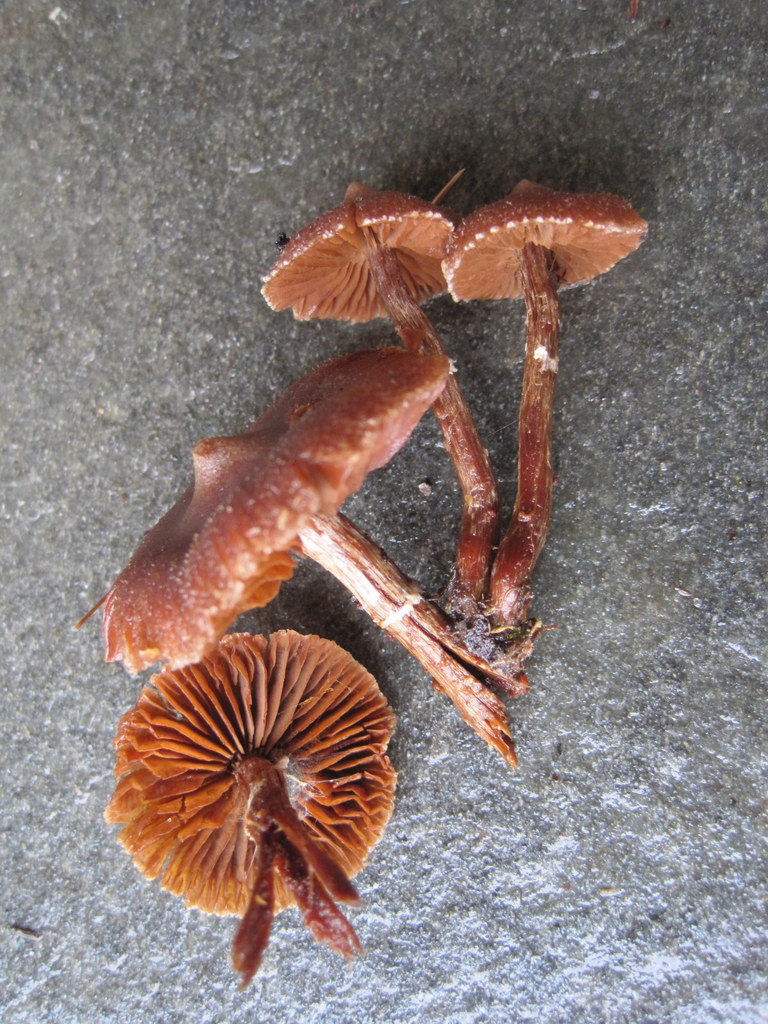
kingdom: Fungi
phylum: Basidiomycota
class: Agaricomycetes
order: Agaricales
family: Cortinariaceae
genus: Cortinarius
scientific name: Cortinarius
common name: pelargonie-slørhat
